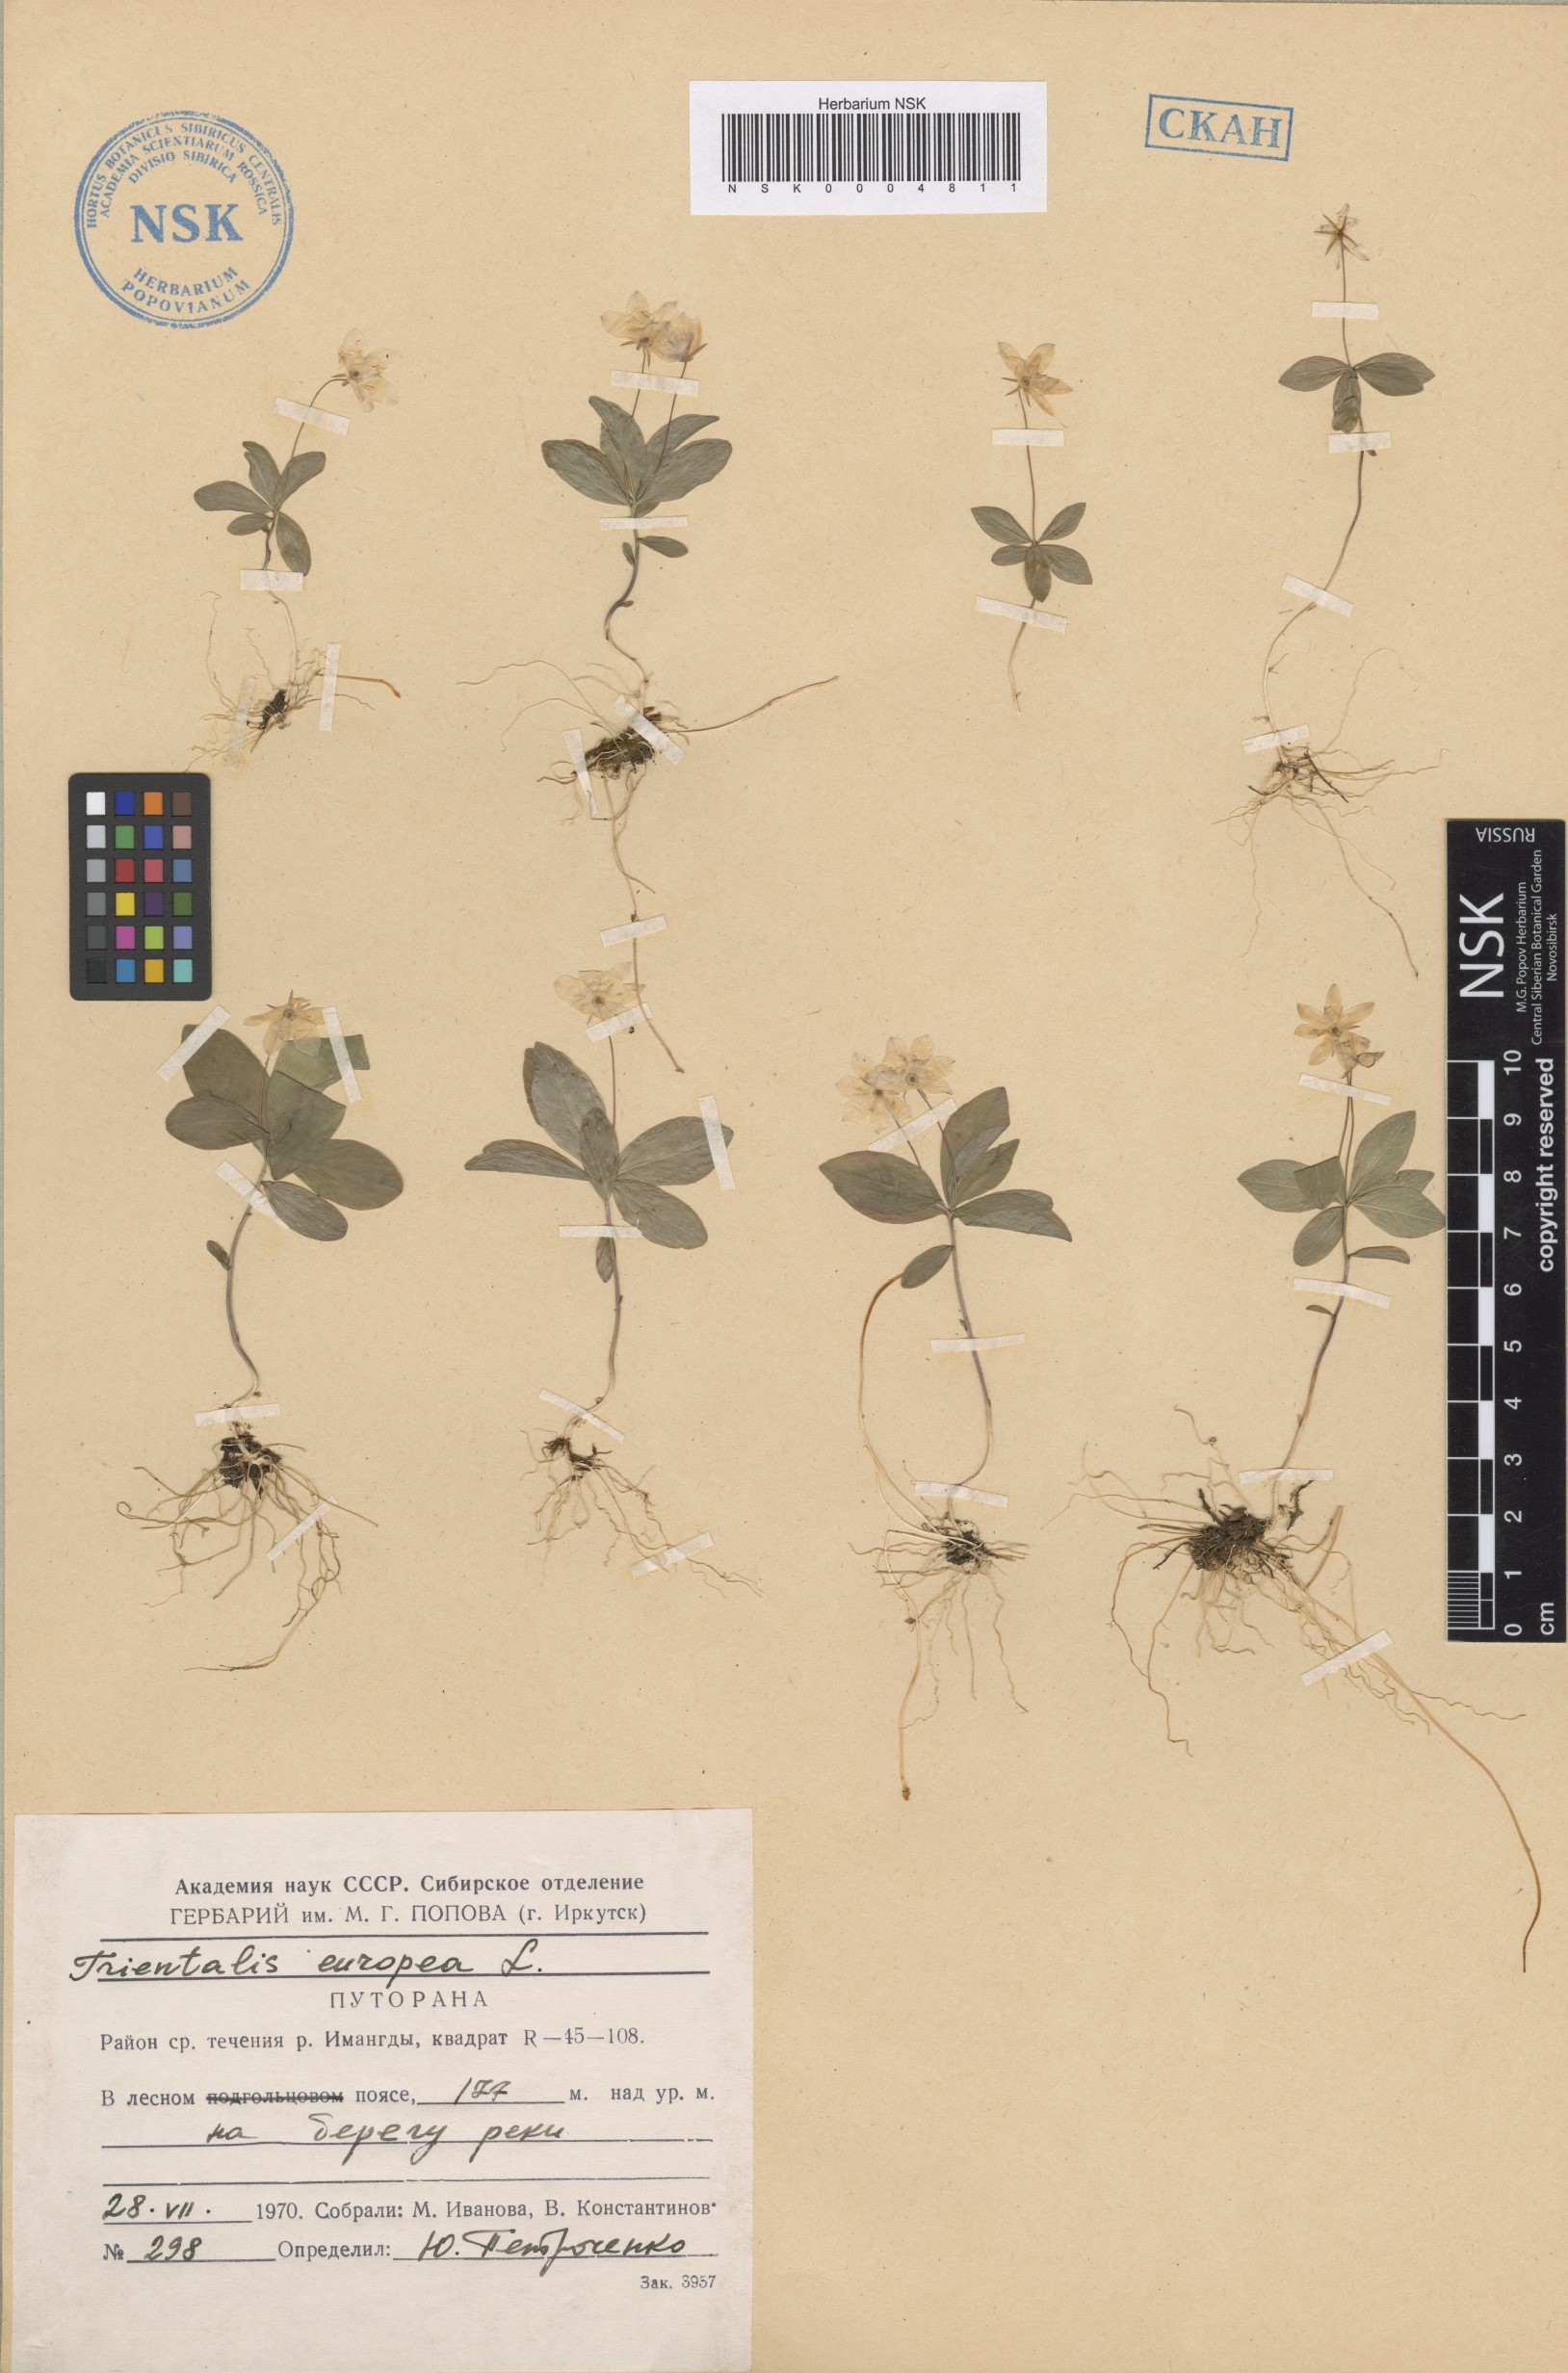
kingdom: Plantae
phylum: Tracheophyta
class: Magnoliopsida
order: Ericales
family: Primulaceae
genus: Lysimachia
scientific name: Lysimachia europaea
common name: Arctic starflower
